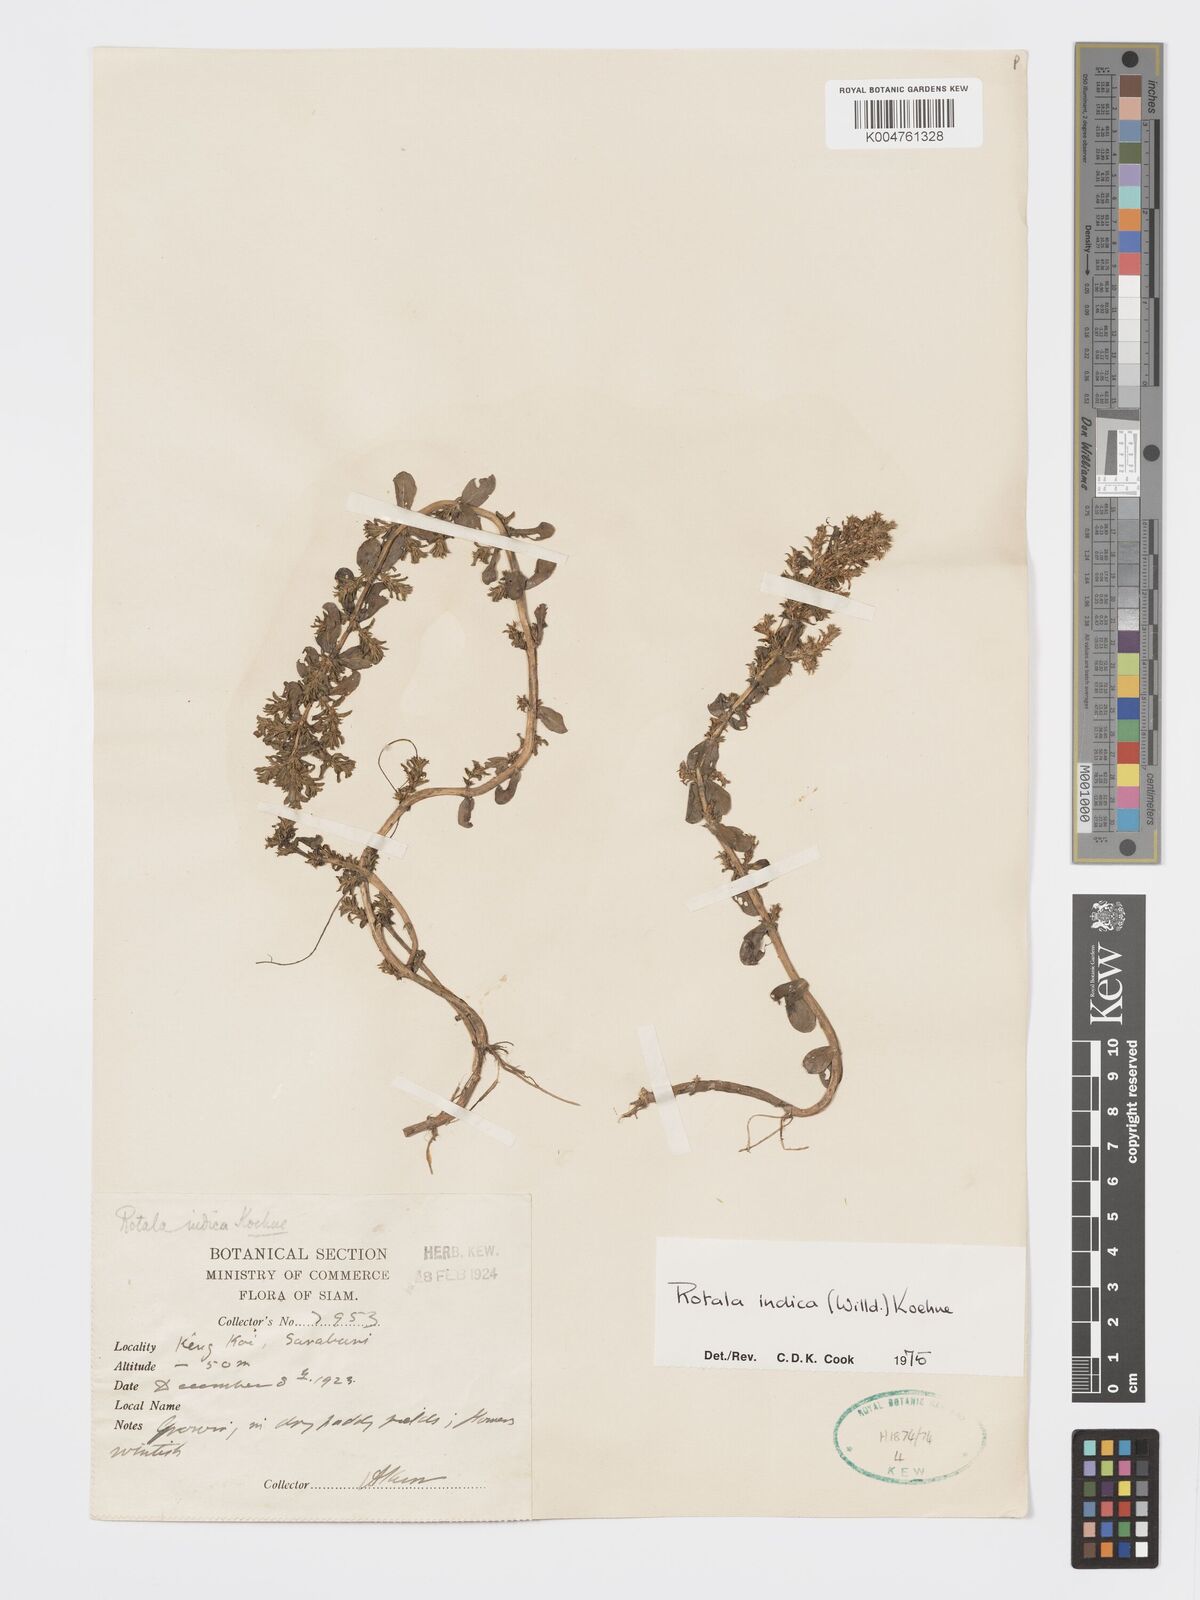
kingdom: Plantae
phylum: Tracheophyta
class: Magnoliopsida
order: Myrtales
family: Lythraceae
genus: Rotala
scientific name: Rotala indica
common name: Indian toothcup
